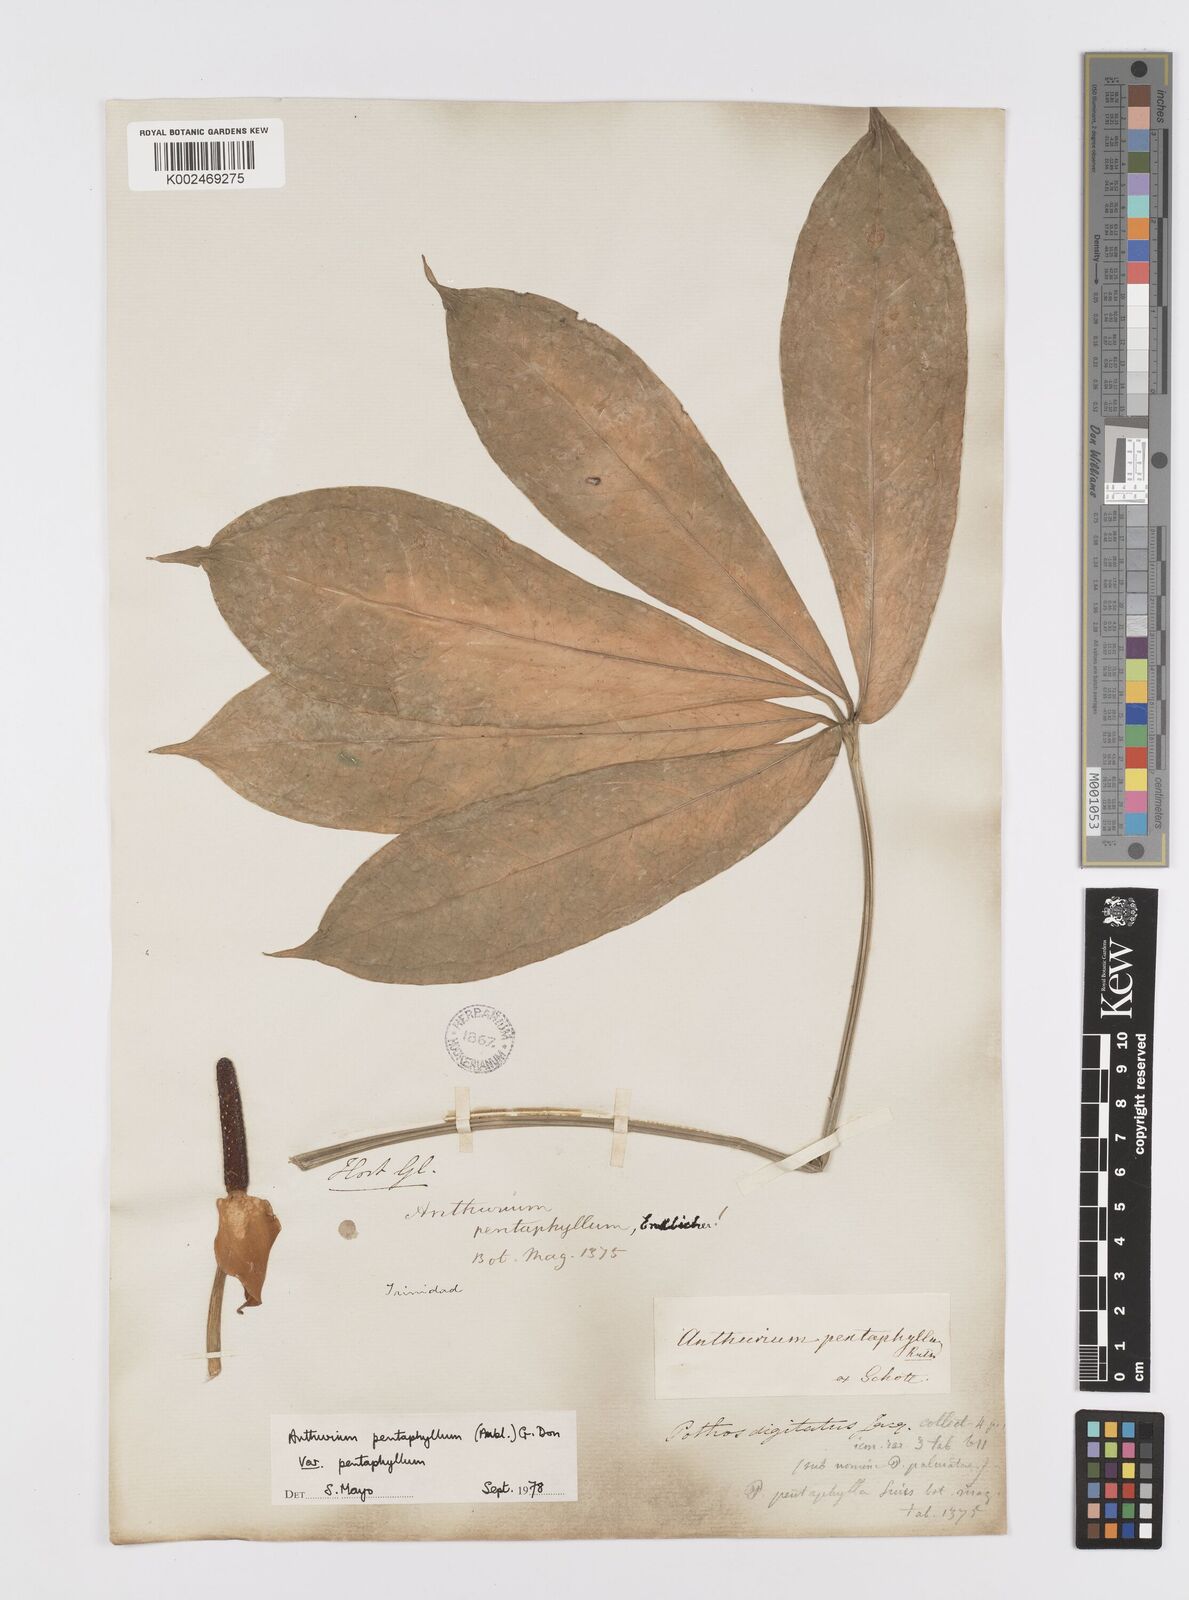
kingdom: Plantae
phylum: Tracheophyta
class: Liliopsida
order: Alismatales
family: Araceae
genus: Anthurium
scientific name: Anthurium pentaphyllum
